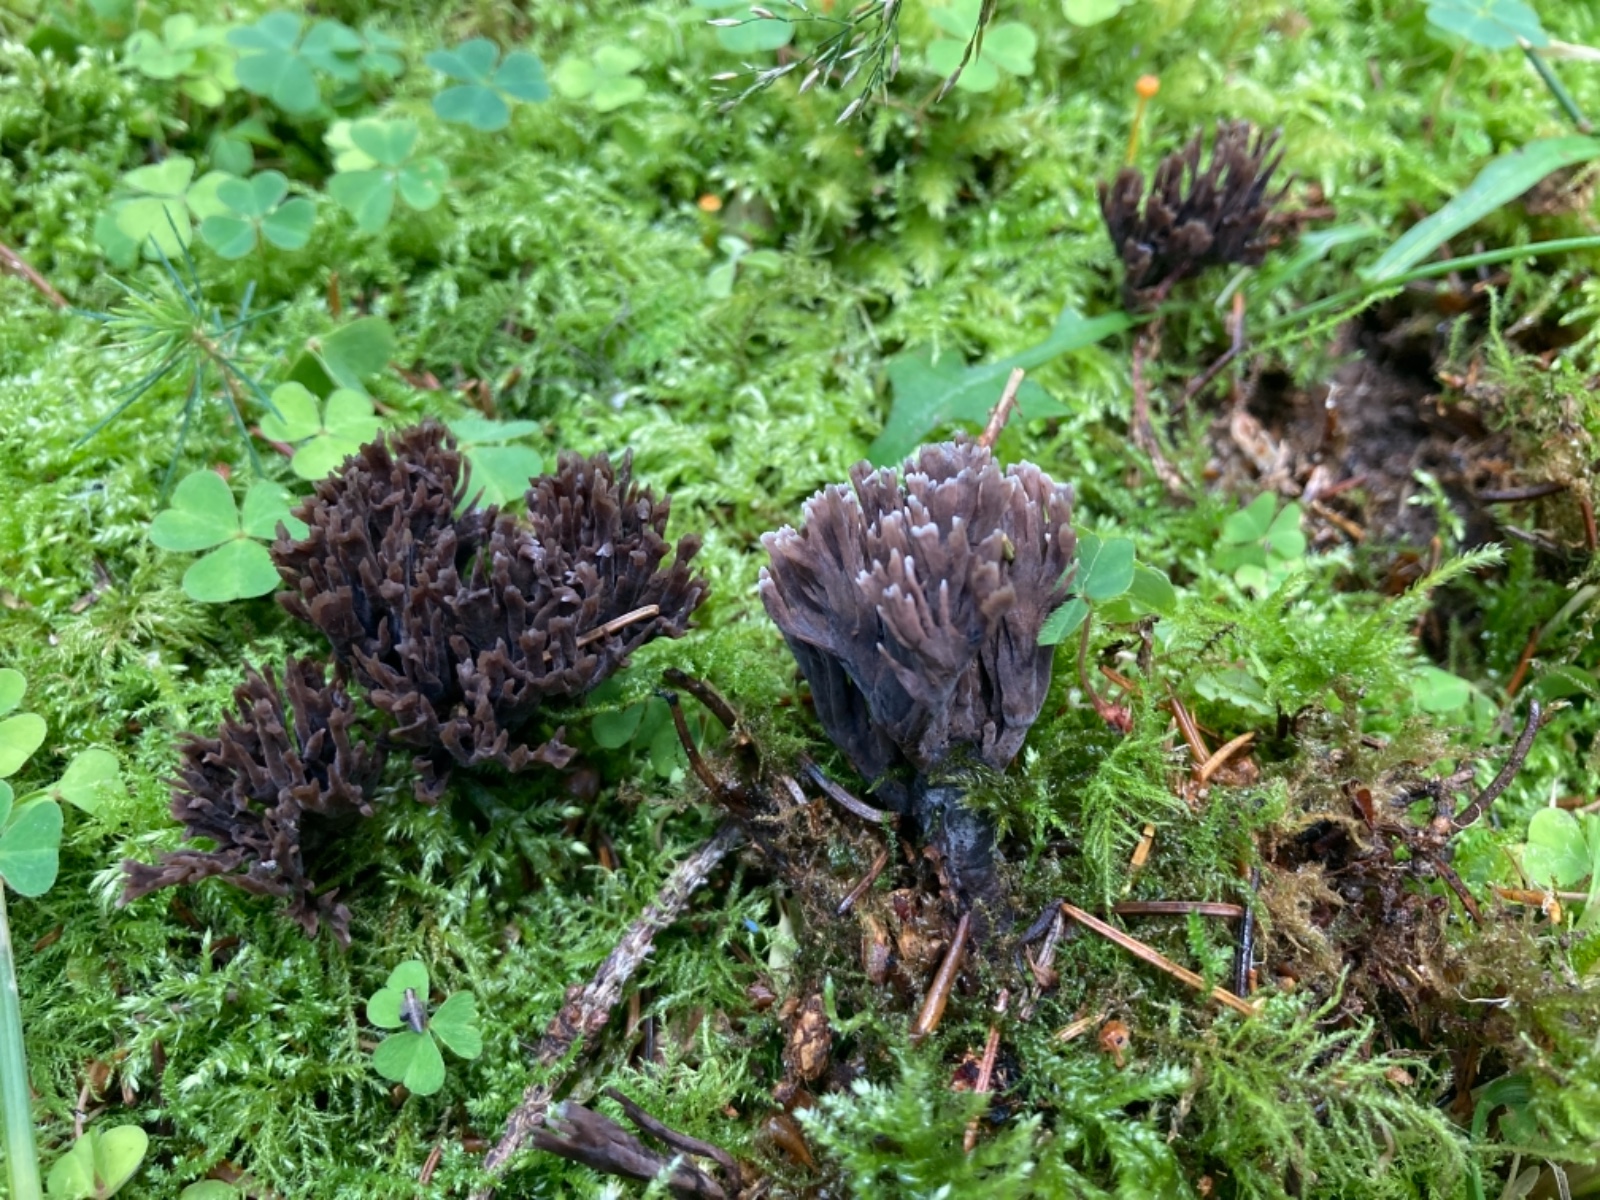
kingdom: Fungi
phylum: Basidiomycota
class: Agaricomycetes
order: Thelephorales
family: Thelephoraceae
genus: Thelephora
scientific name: Thelephora palmata
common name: grenet frynsesvamp
